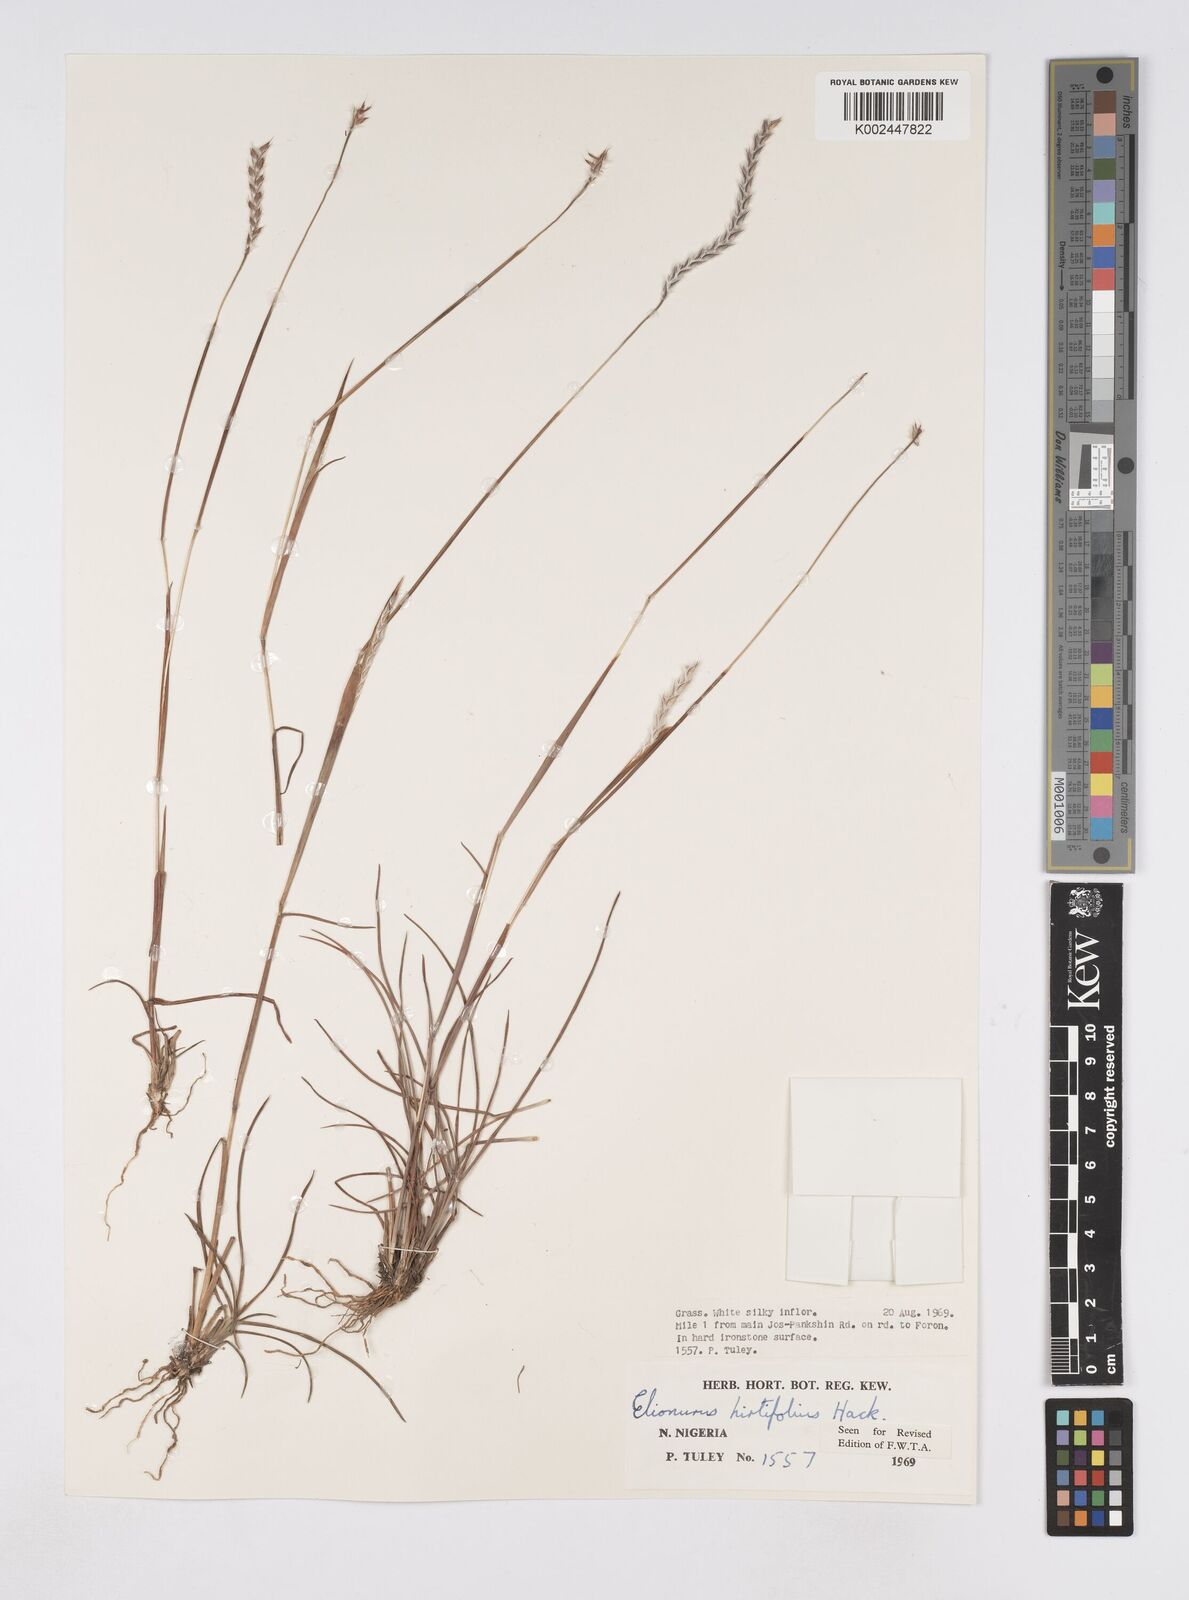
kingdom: Plantae
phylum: Tracheophyta
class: Liliopsida
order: Poales
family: Poaceae
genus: Elionurus
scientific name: Elionurus hirtifolius
